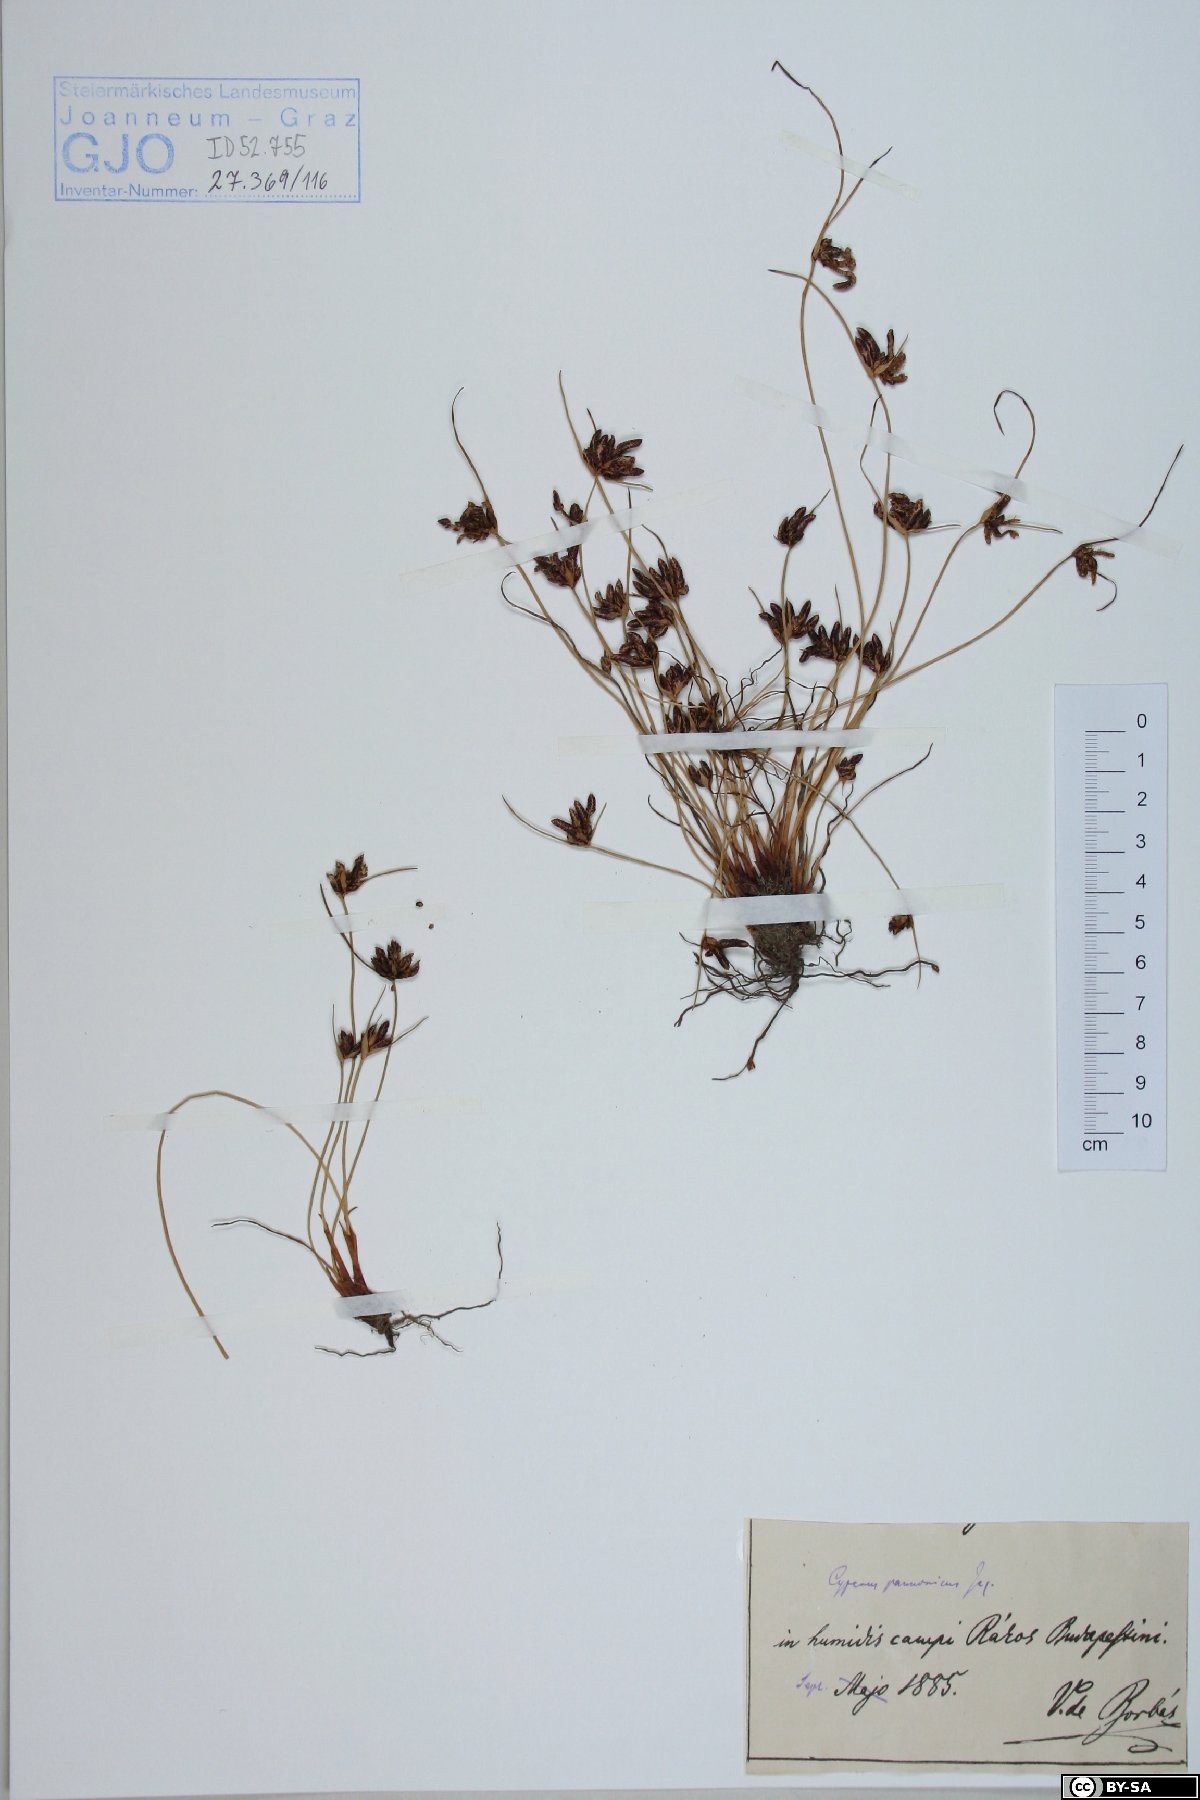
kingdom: Plantae
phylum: Tracheophyta
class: Liliopsida
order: Poales
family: Cyperaceae
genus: Cyperus
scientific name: Cyperus pannonicus
